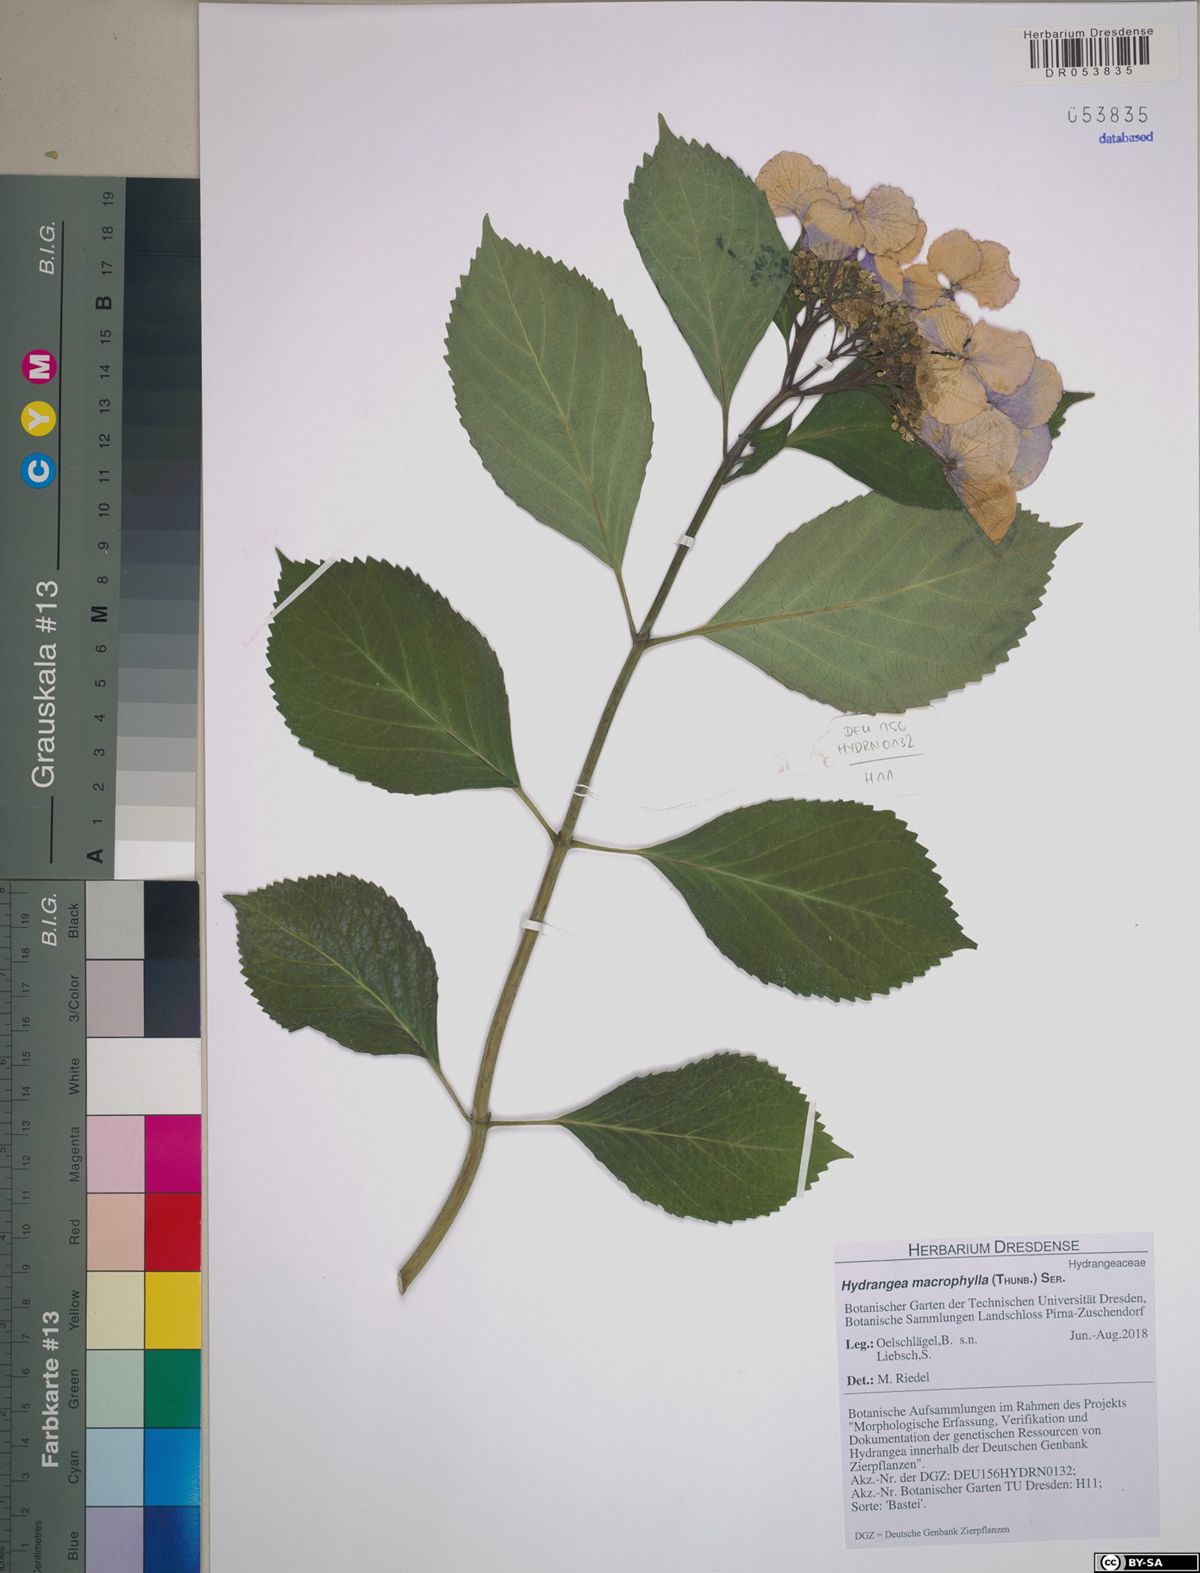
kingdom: Plantae
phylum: Tracheophyta
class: Magnoliopsida
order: Cornales
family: Hydrangeaceae
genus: Hydrangea
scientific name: Hydrangea macrophylla
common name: Hydrangea
